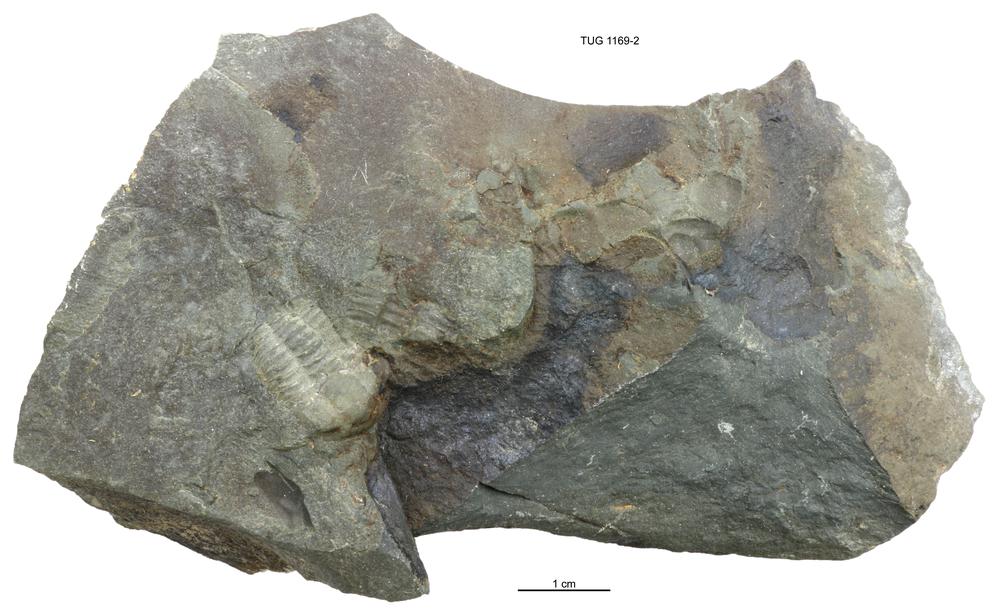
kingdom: Animalia
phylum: Arthropoda
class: Trilobita
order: Ptychopariida
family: Ellipsocephalidae
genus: Ellipsocephalus
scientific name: Ellipsocephalus
